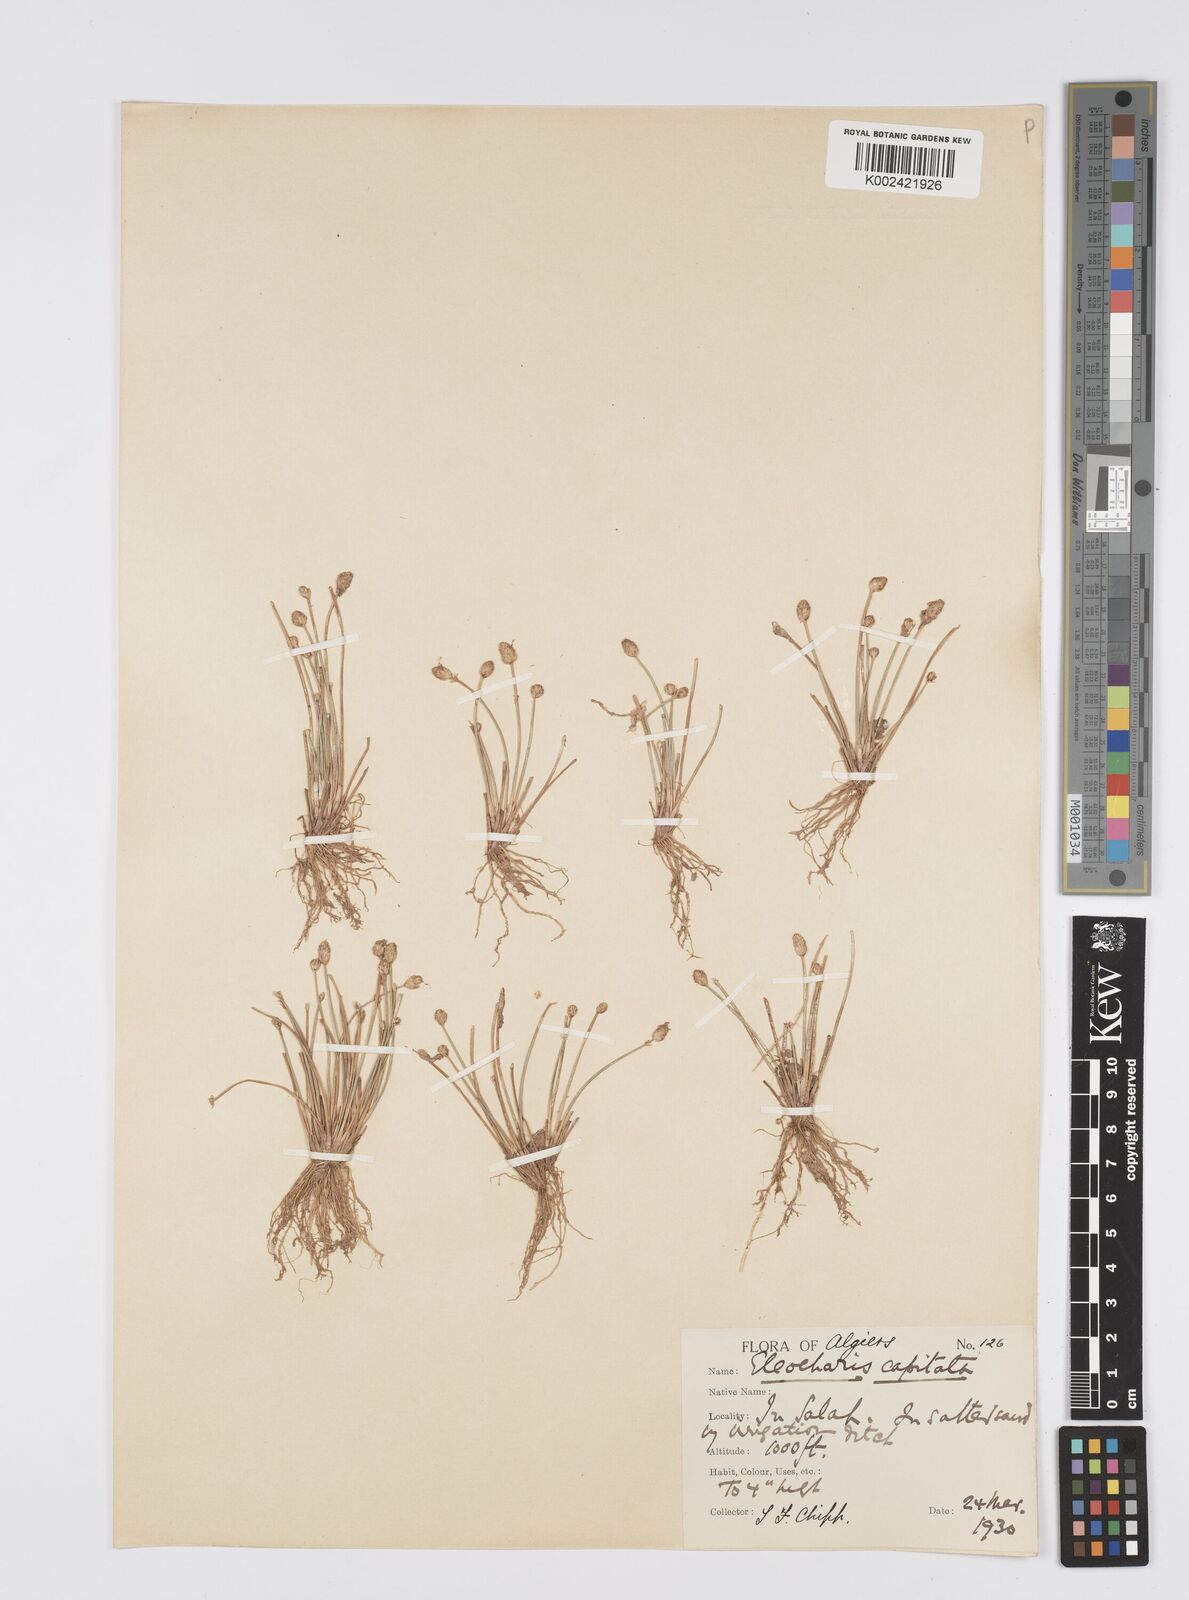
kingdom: Plantae
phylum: Tracheophyta
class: Liliopsida
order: Poales
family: Cyperaceae
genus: Eleocharis
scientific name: Eleocharis geniculata
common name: Canada spikesedge
